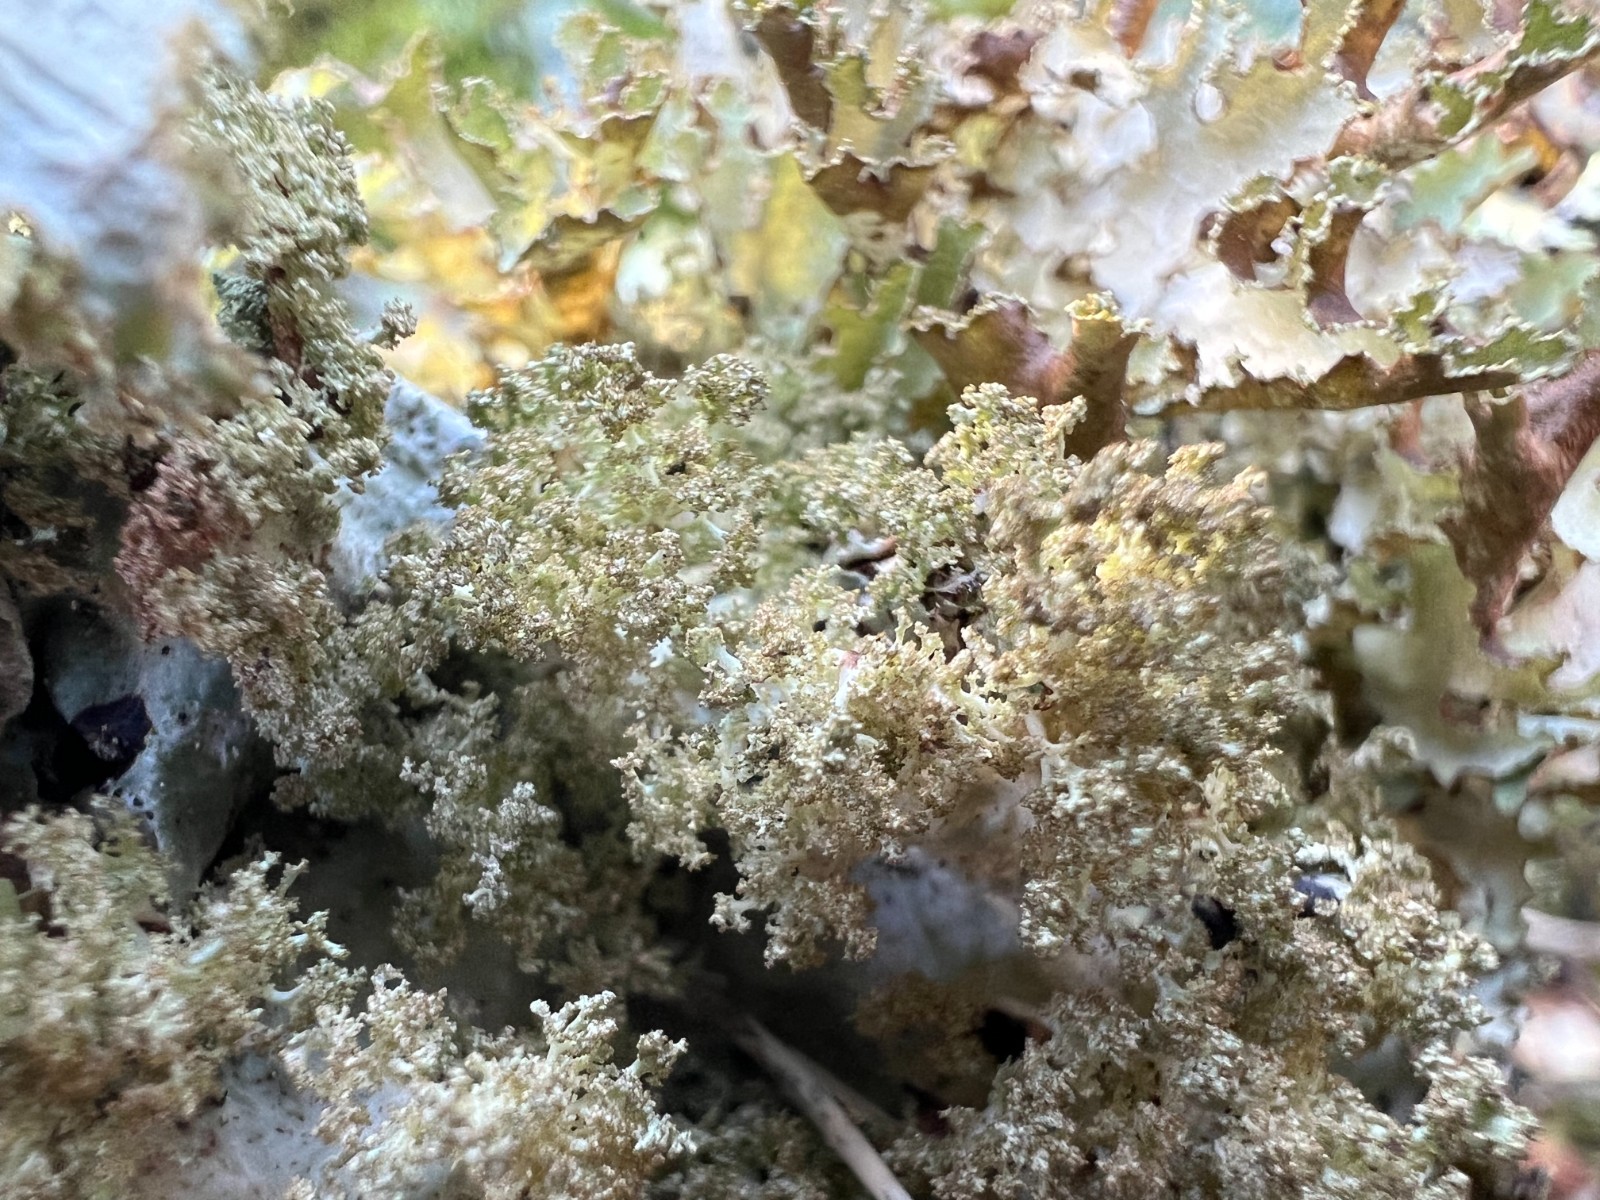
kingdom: Fungi
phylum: Ascomycota
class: Lecanoromycetes
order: Lecanorales
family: Parmeliaceae
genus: Platismatia
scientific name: Platismatia glauca
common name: blågrå papirlav
